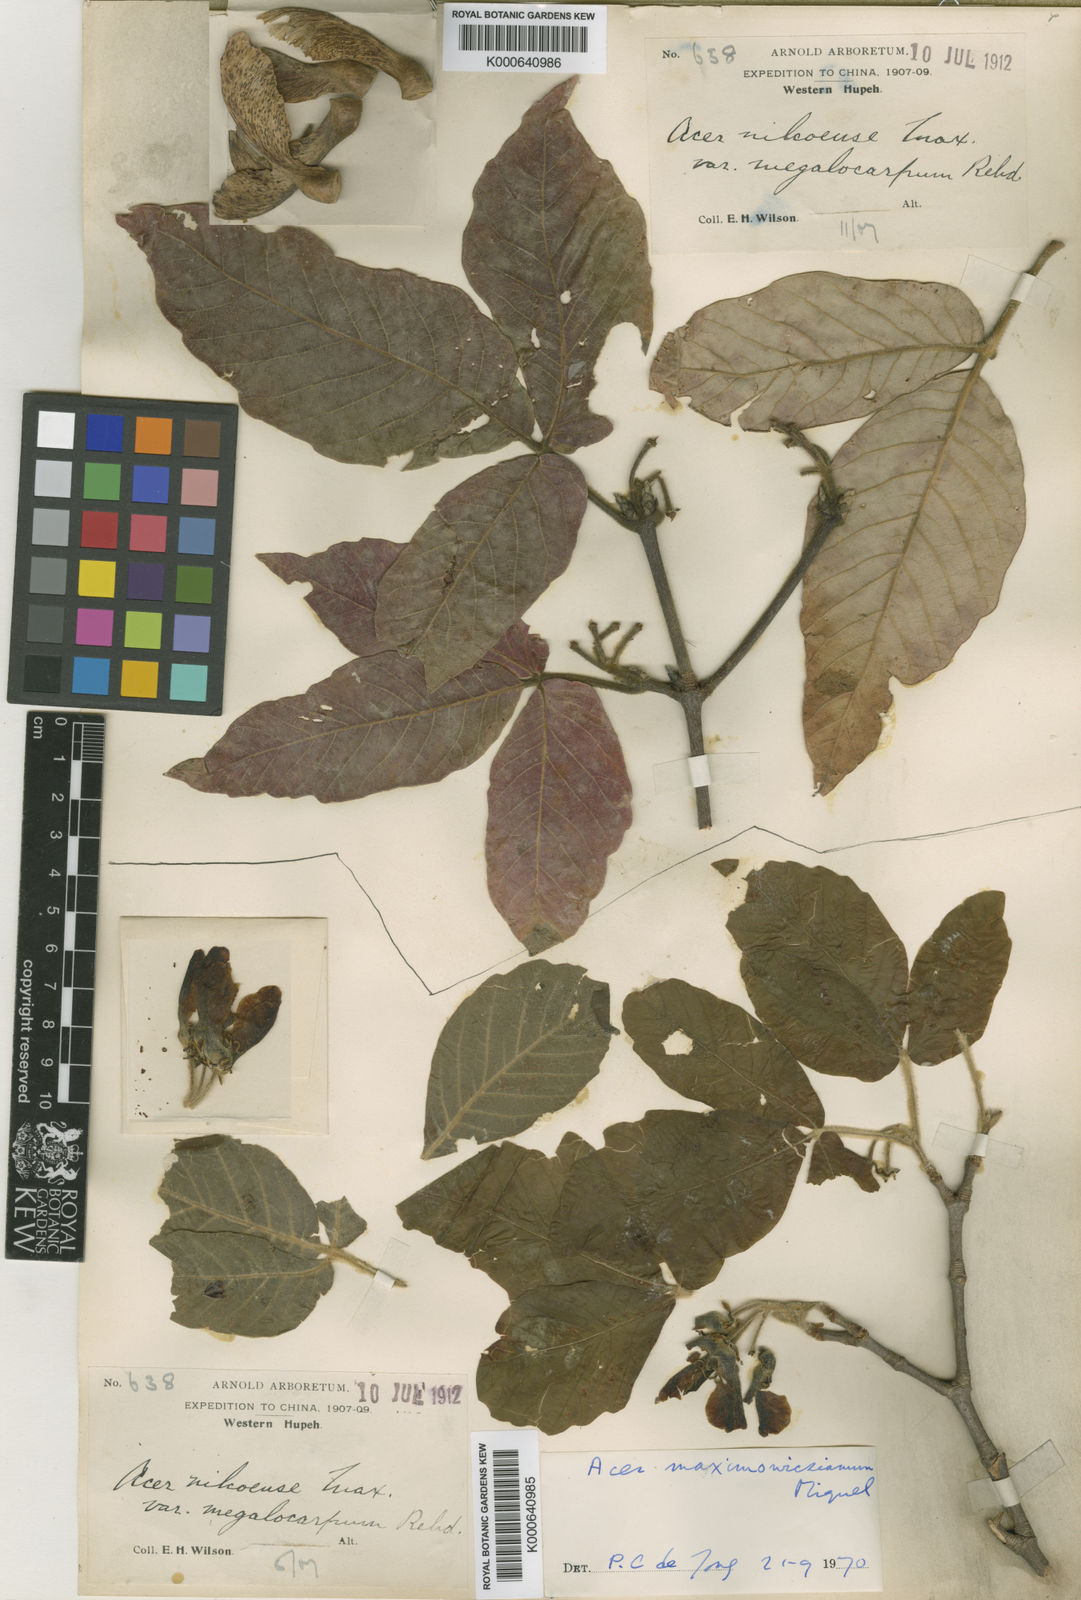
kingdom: Plantae
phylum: Tracheophyta
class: Magnoliopsida
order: Sapindales
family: Sapindaceae
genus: Acer
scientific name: Acer maximowiczianum
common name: Nikko maple
